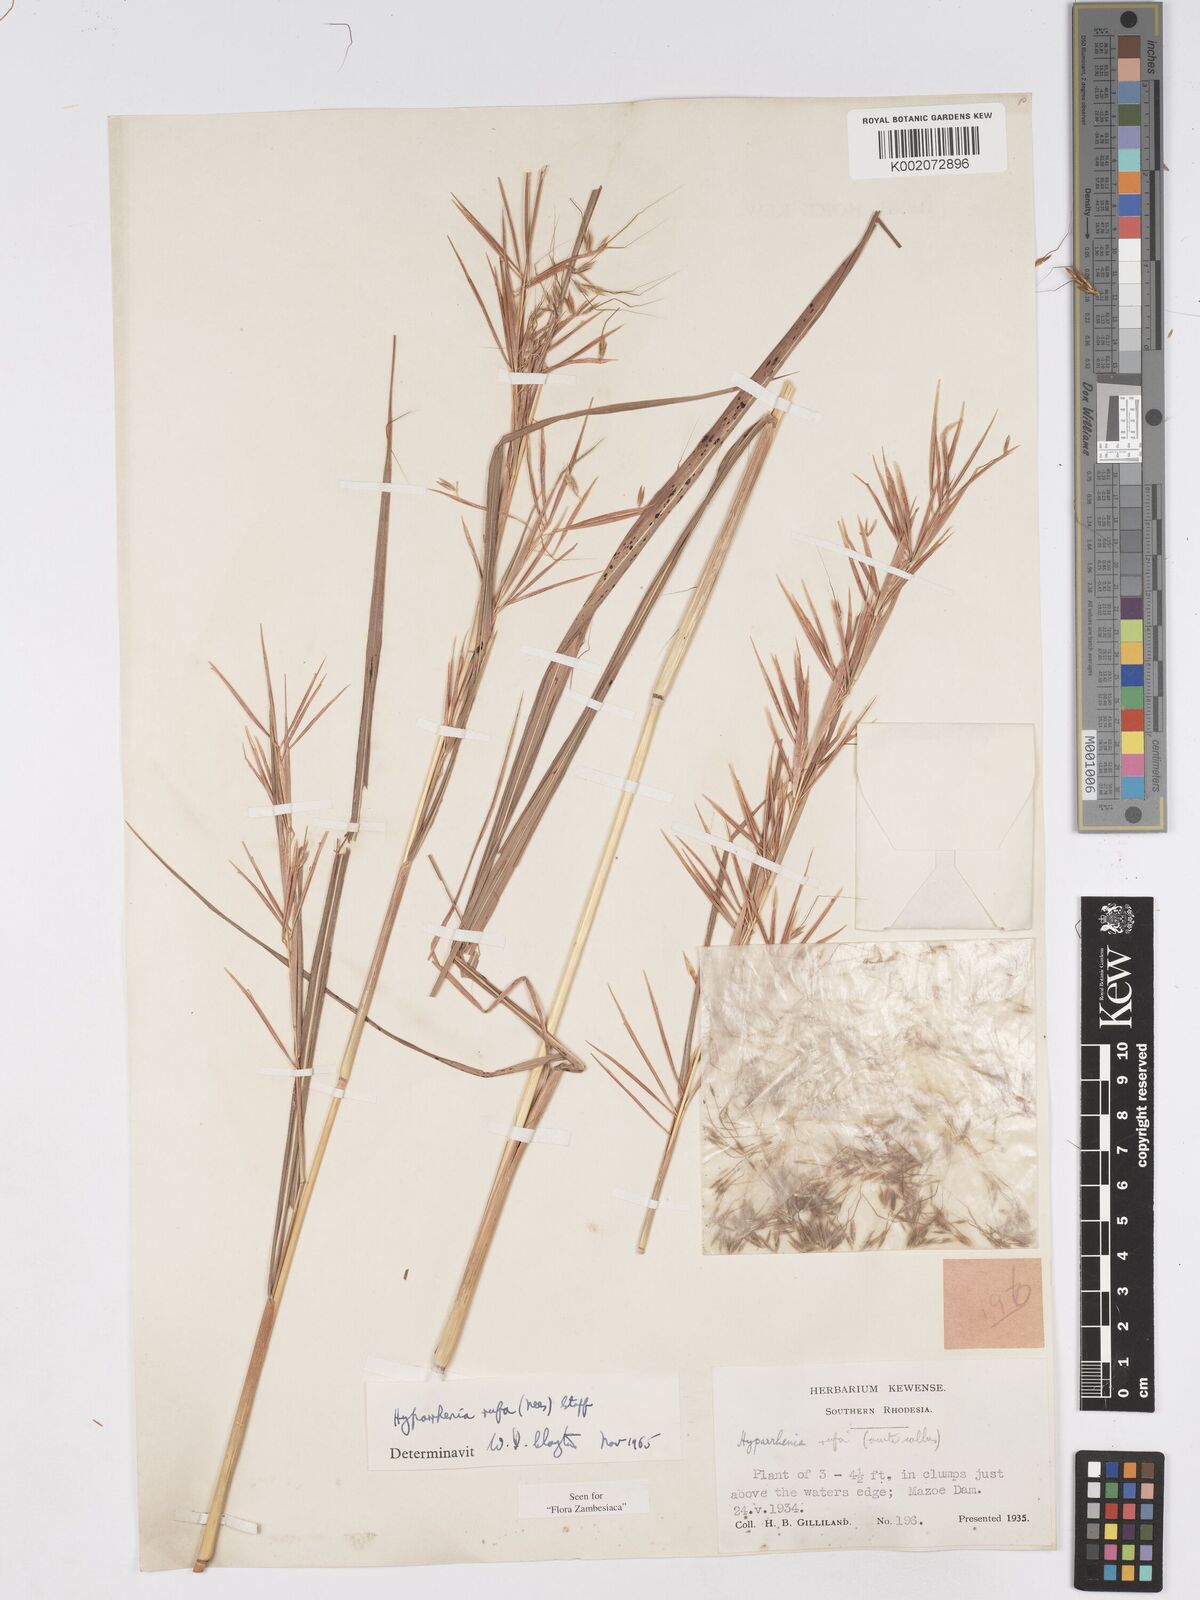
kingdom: Plantae
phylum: Tracheophyta
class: Liliopsida
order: Poales
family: Poaceae
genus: Hyparrhenia
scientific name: Hyparrhenia rufa
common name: Jaraguagrass
